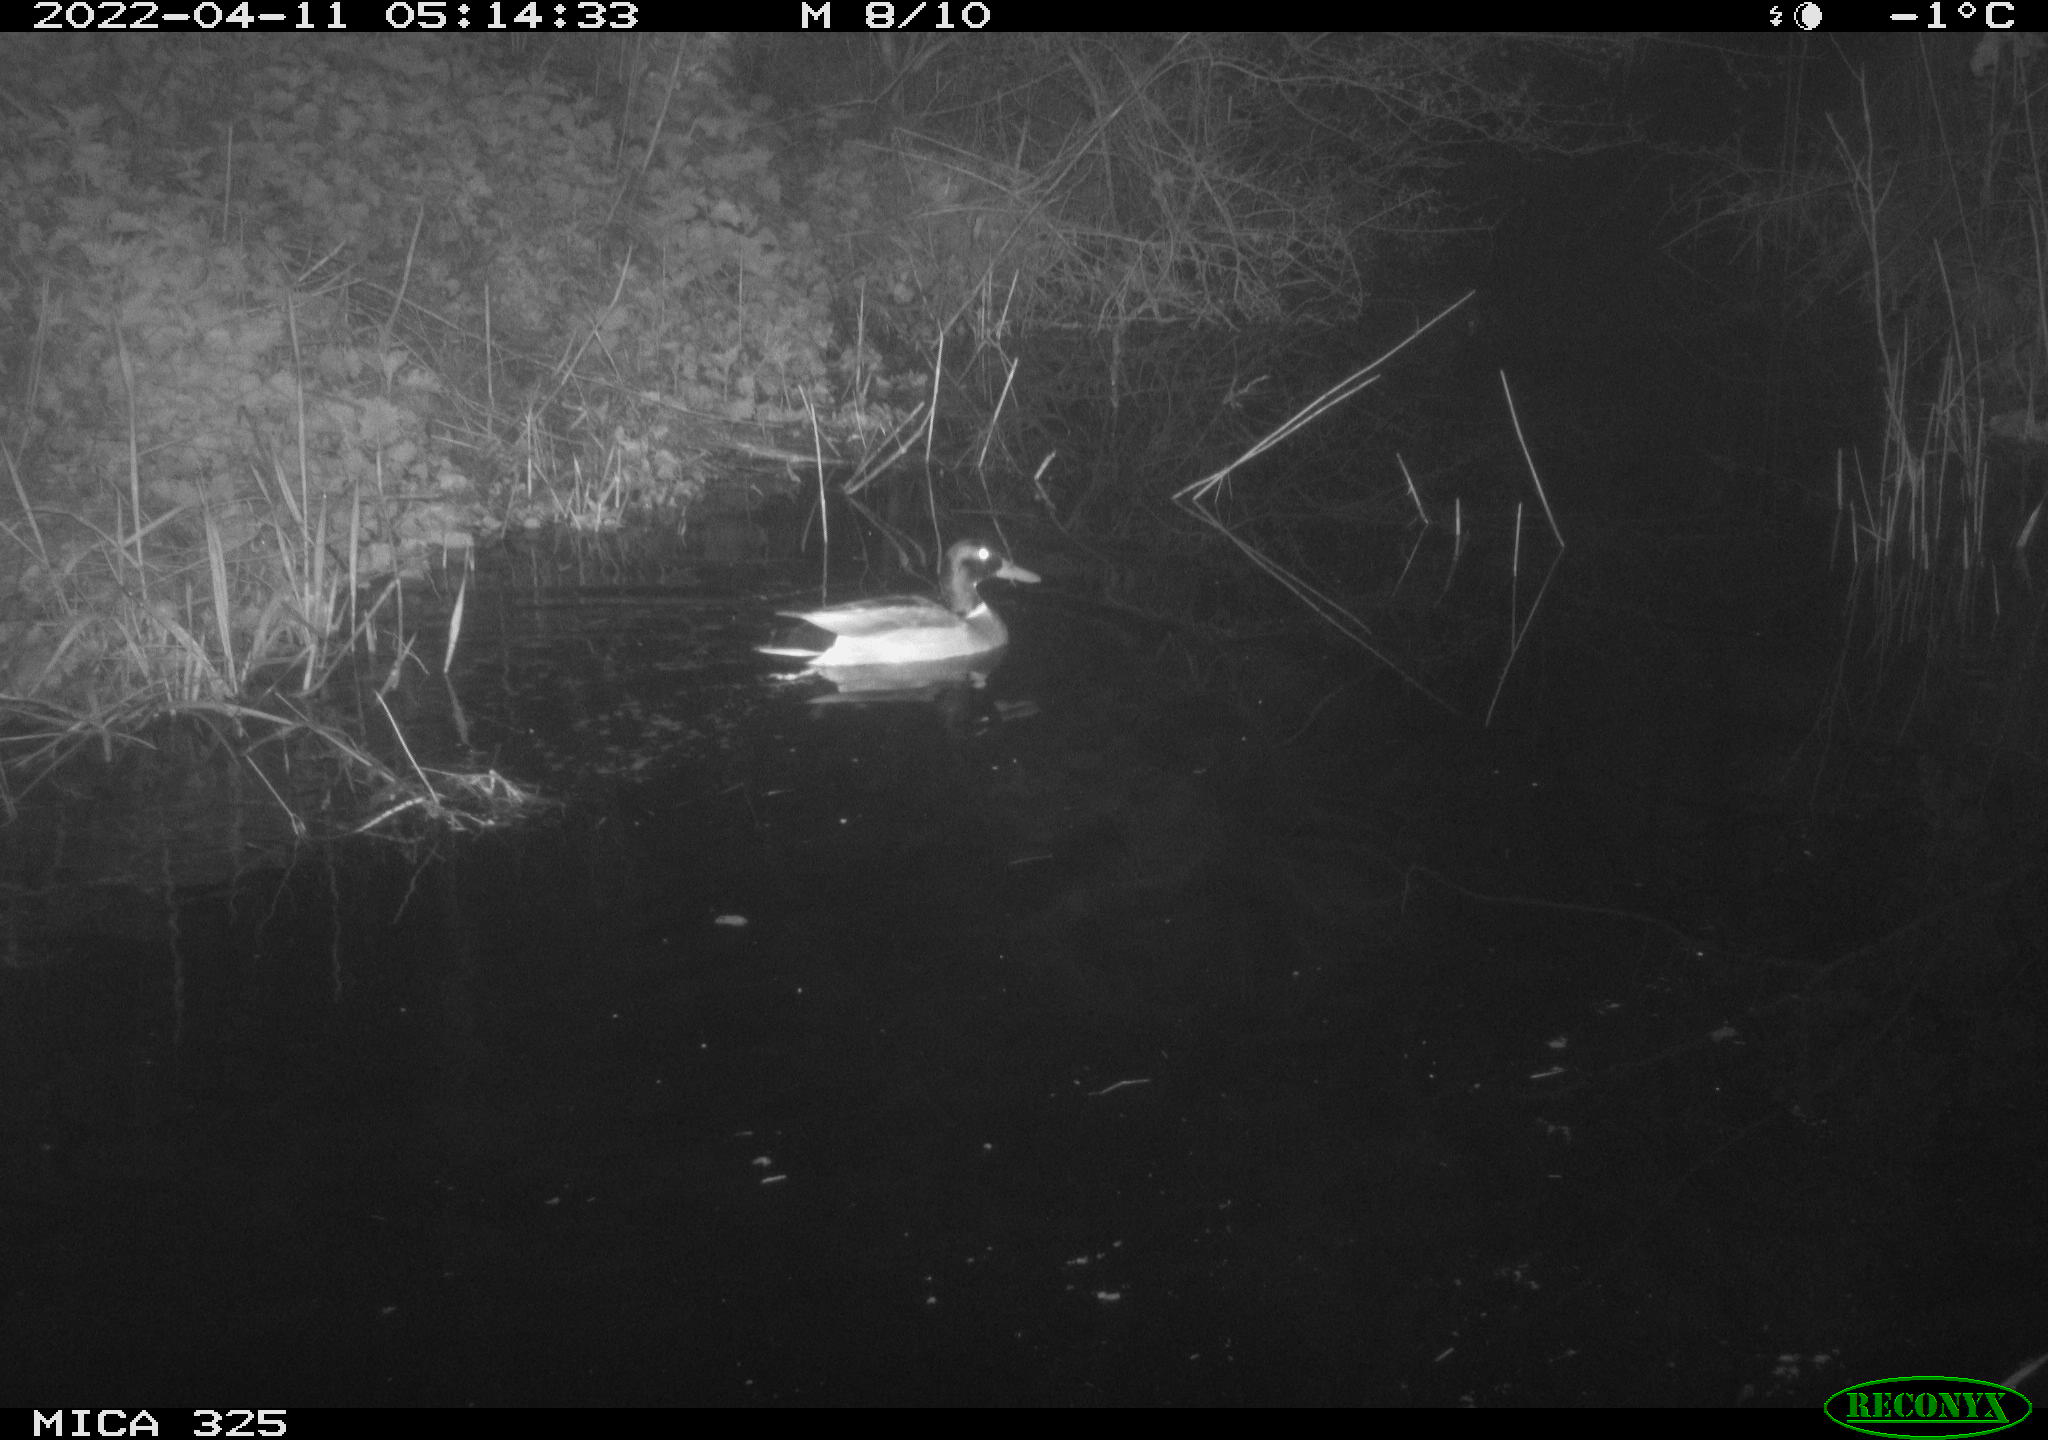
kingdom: Animalia
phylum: Chordata
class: Aves
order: Anseriformes
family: Anatidae
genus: Anas
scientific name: Anas platyrhynchos
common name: Mallard
